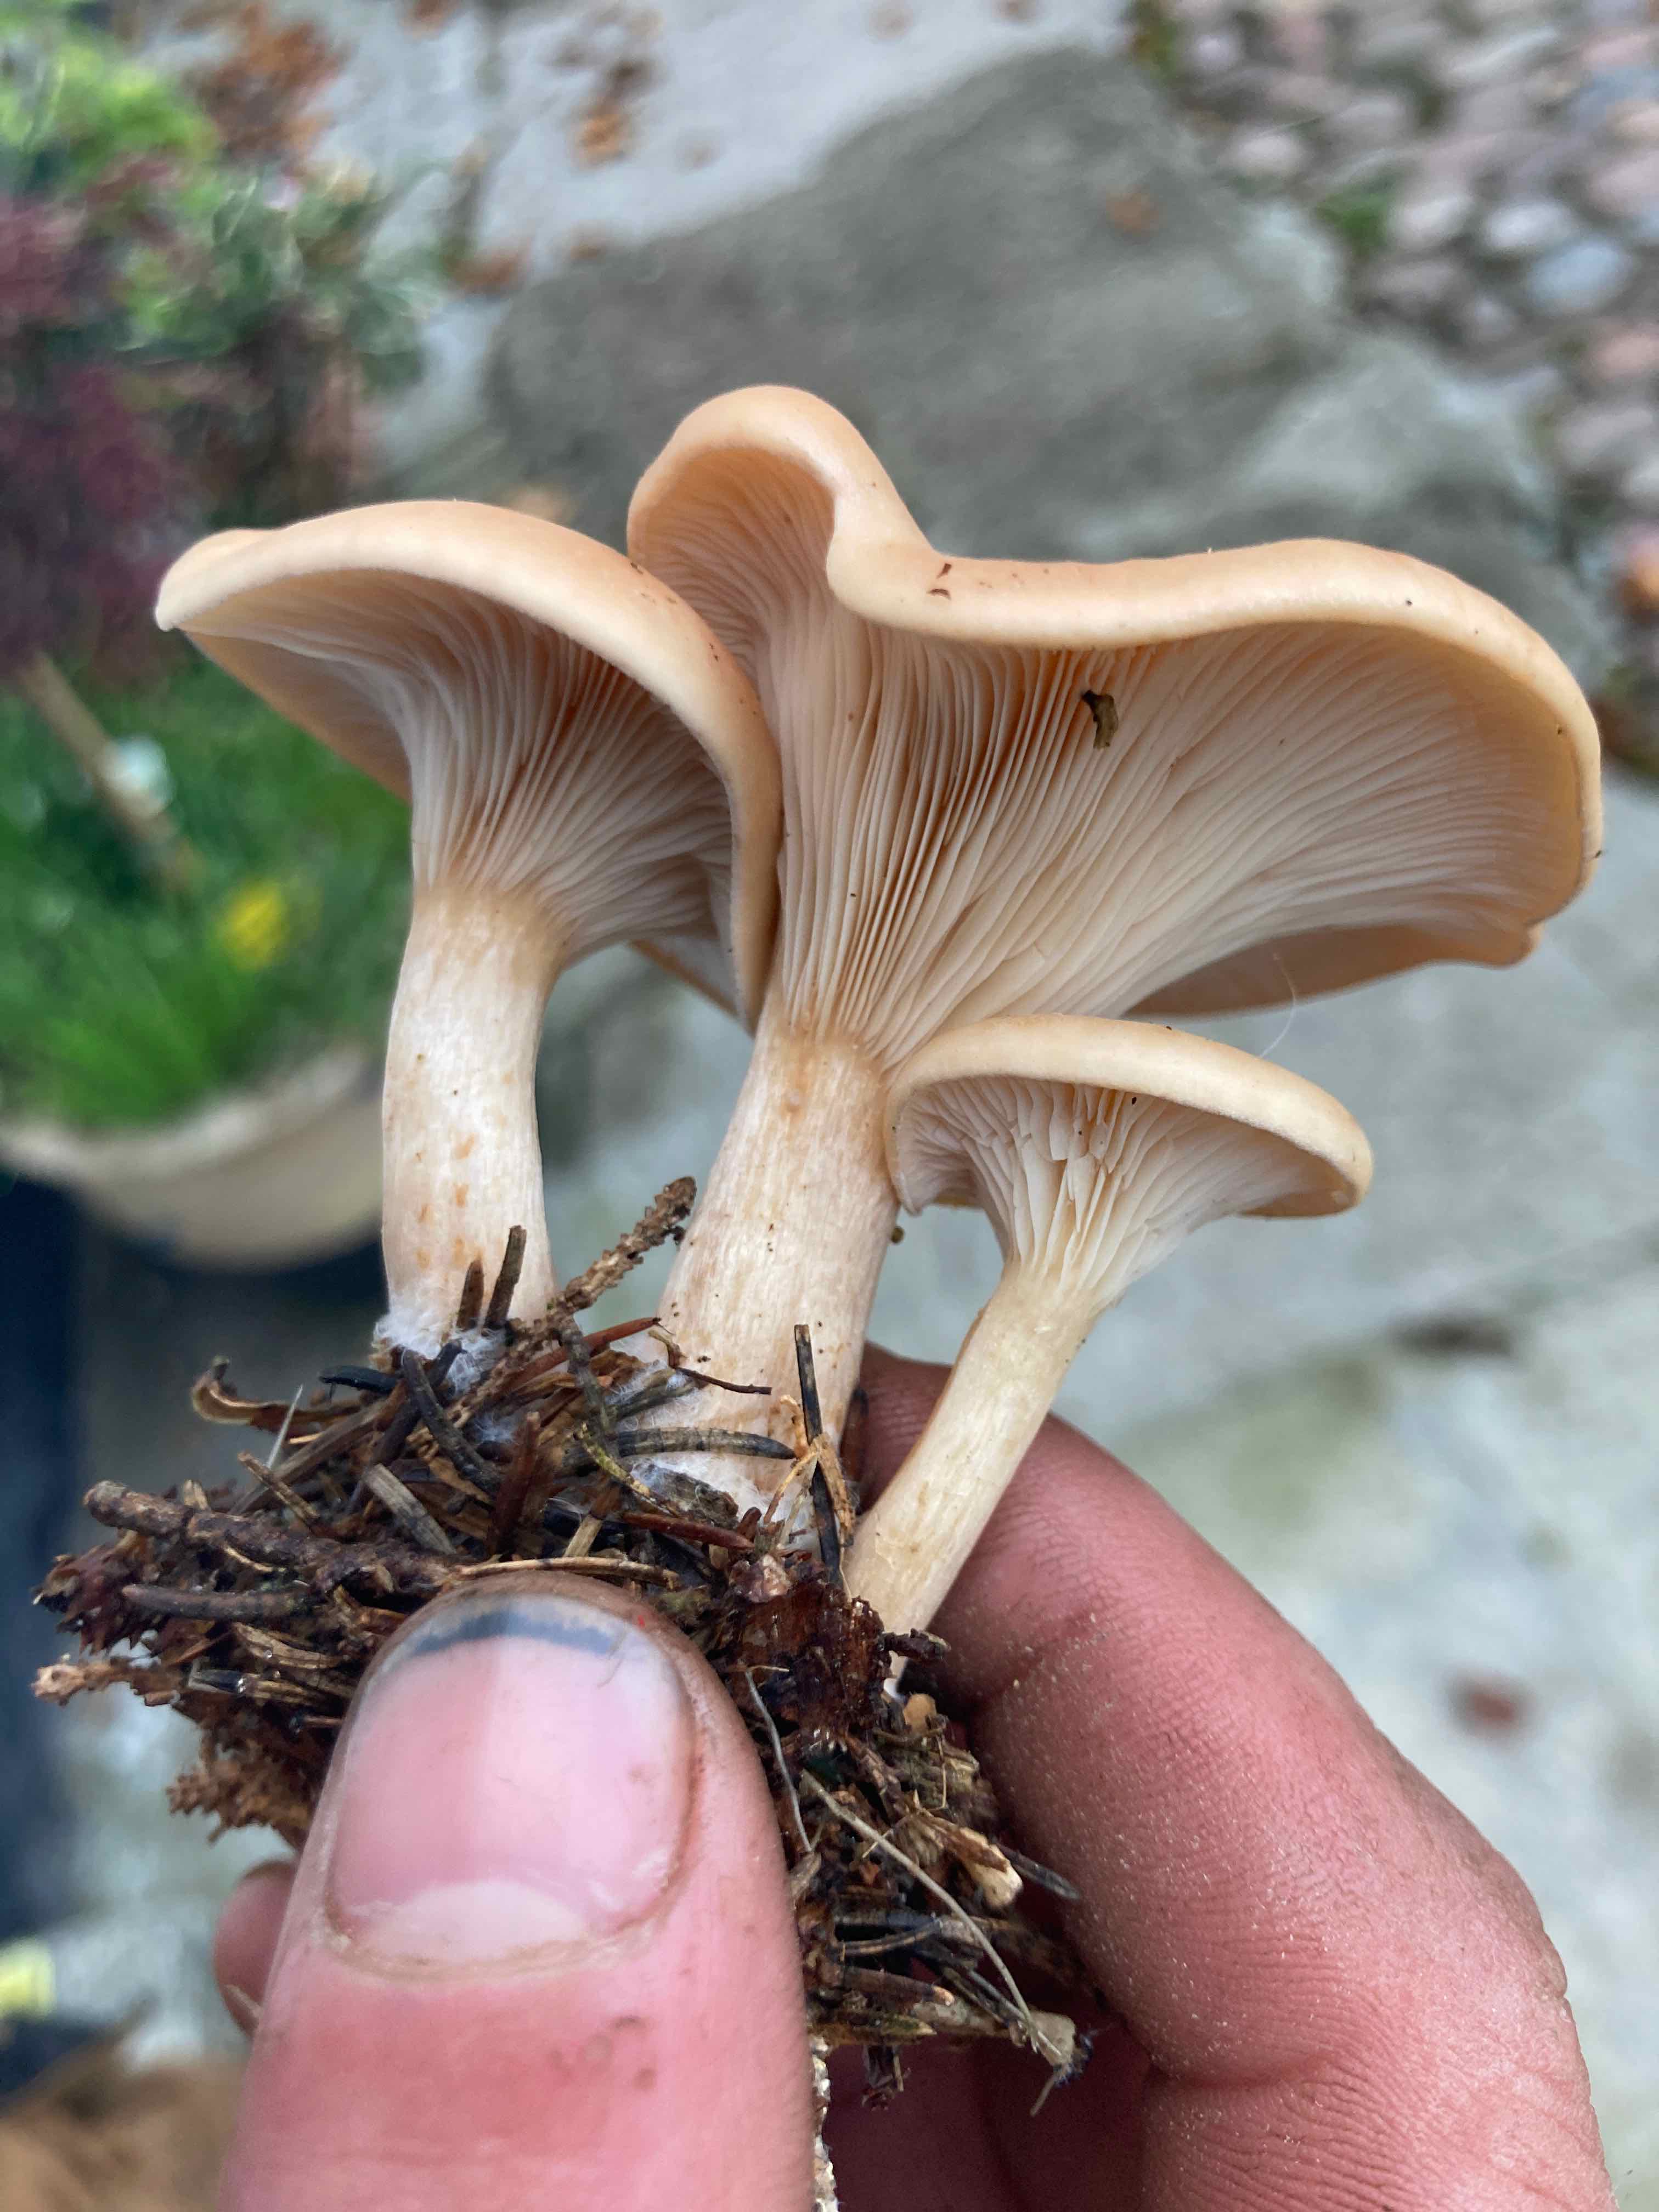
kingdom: Fungi
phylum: Basidiomycota
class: Agaricomycetes
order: Agaricales
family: Tricholomataceae
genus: Paralepista
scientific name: Paralepista flaccida
